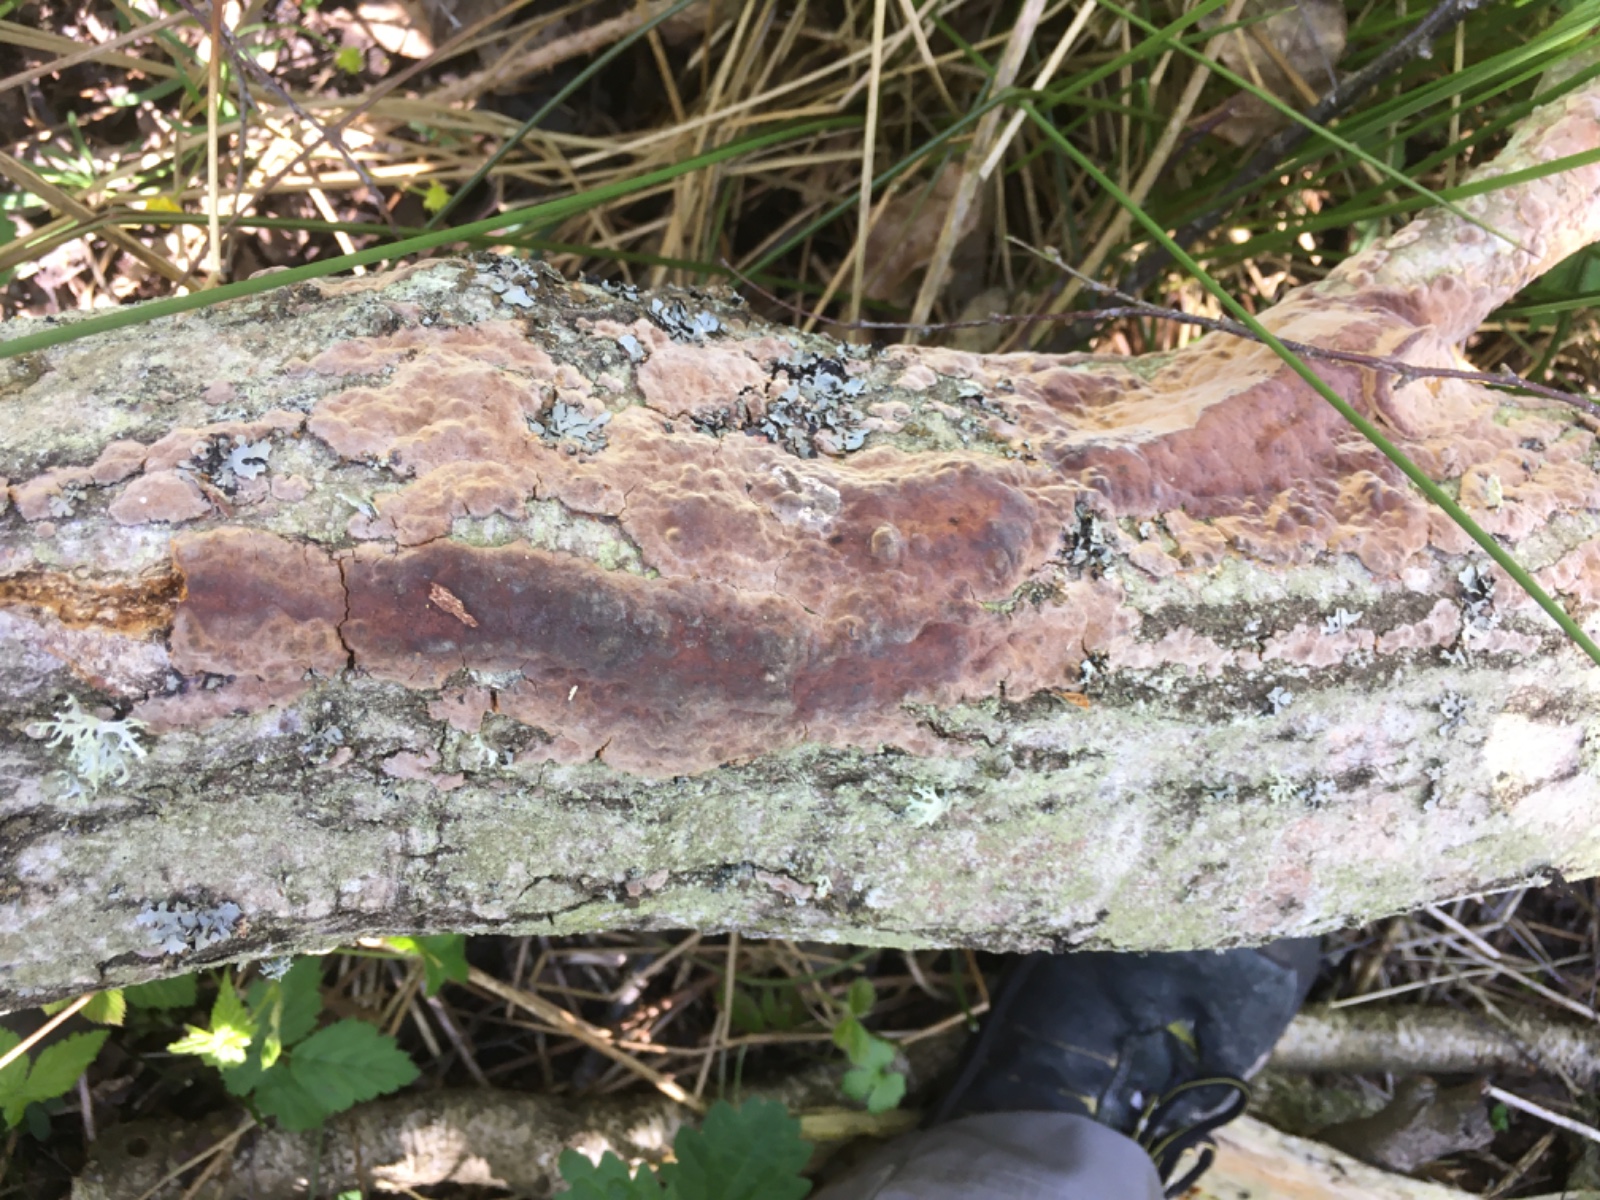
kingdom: Fungi
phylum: Basidiomycota
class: Agaricomycetes
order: Hymenochaetales
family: Hymenochaetaceae
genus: Fuscoporia
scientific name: Fuscoporia ferrea
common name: skorpe-ildporesvamp
